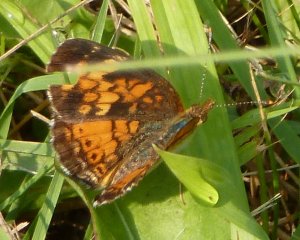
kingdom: Animalia
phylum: Arthropoda
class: Insecta
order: Lepidoptera
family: Nymphalidae
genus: Phyciodes
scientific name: Phyciodes tharos
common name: Northern Crescent
